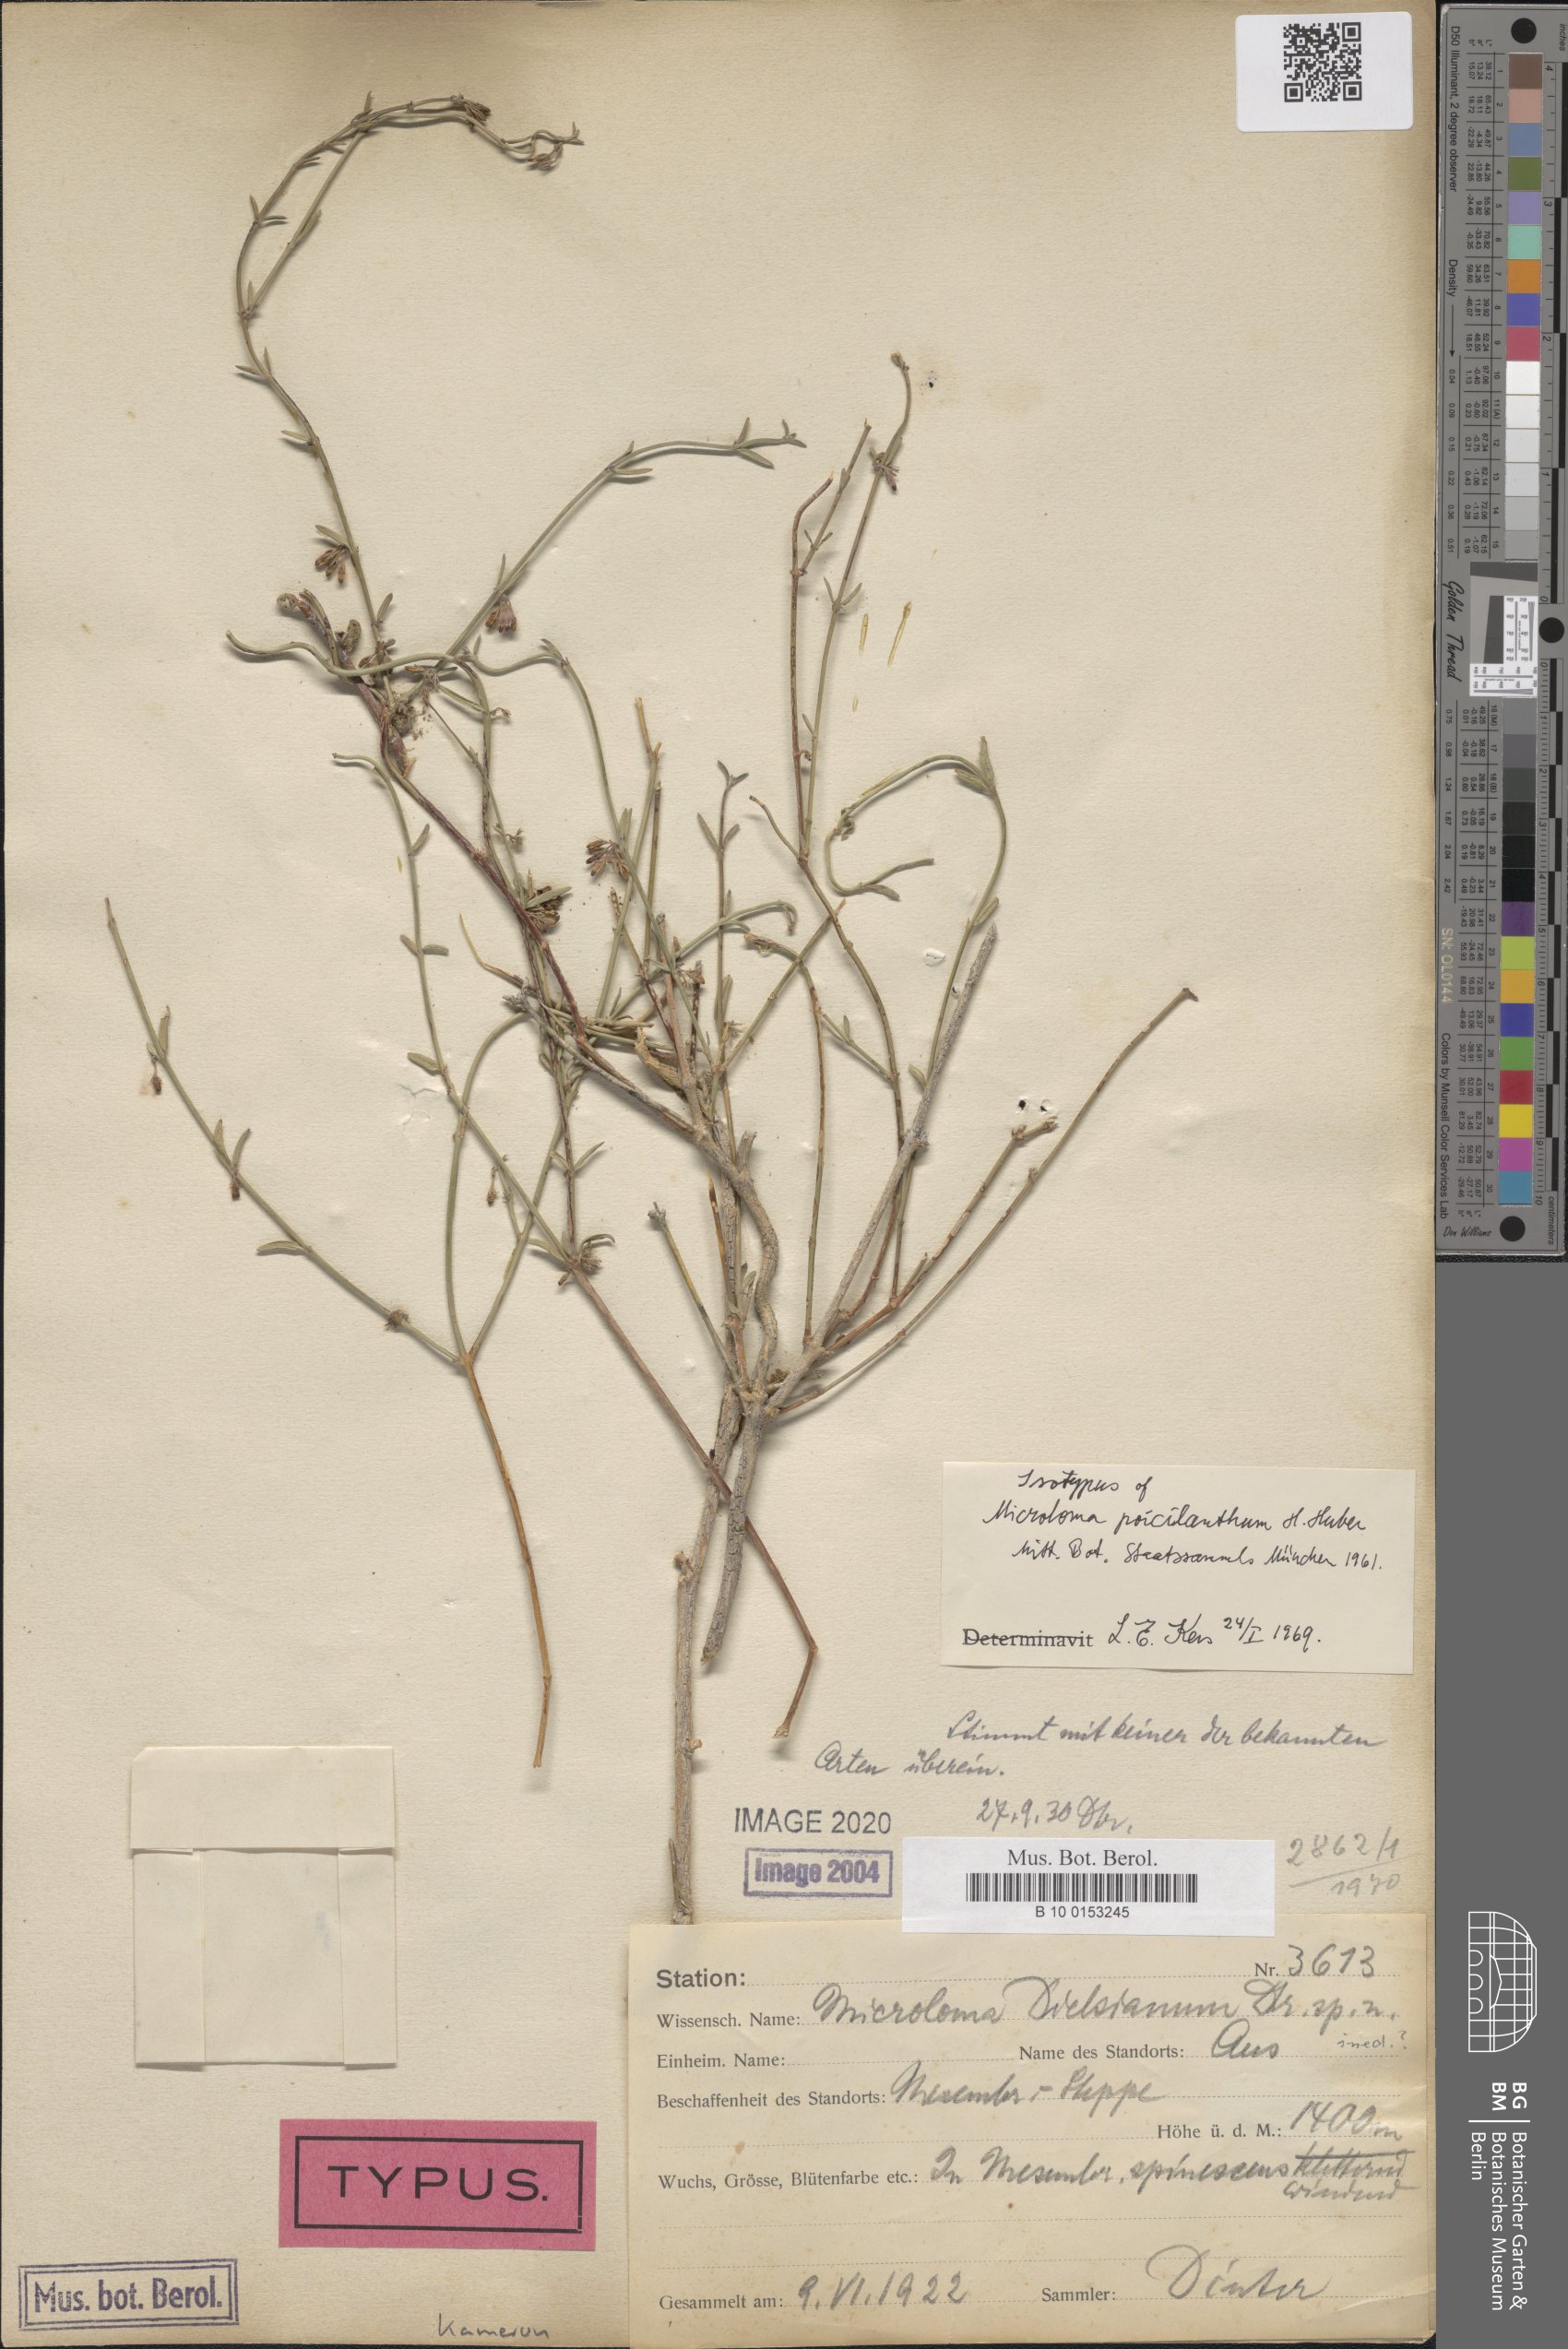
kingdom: Plantae
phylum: Tracheophyta
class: Magnoliopsida
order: Gentianales
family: Apocynaceae
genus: Microloma
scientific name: Microloma poicilanthum
